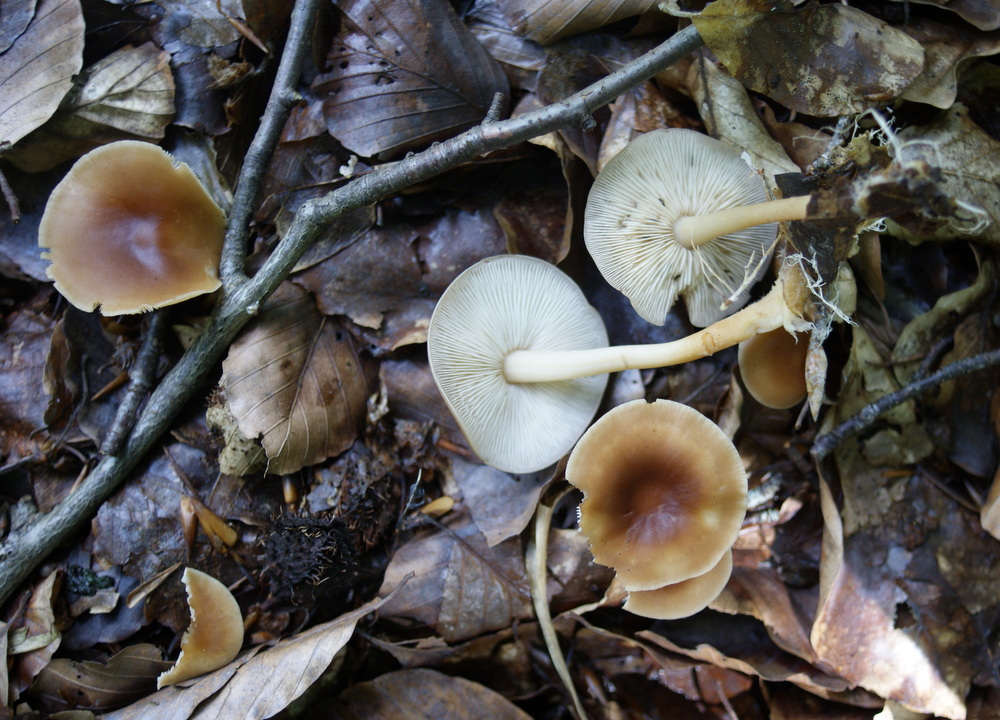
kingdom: Fungi
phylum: Basidiomycota
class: Agaricomycetes
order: Agaricales
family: Omphalotaceae
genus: Gymnopus
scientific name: Gymnopus ocior
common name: mørk fladhat
